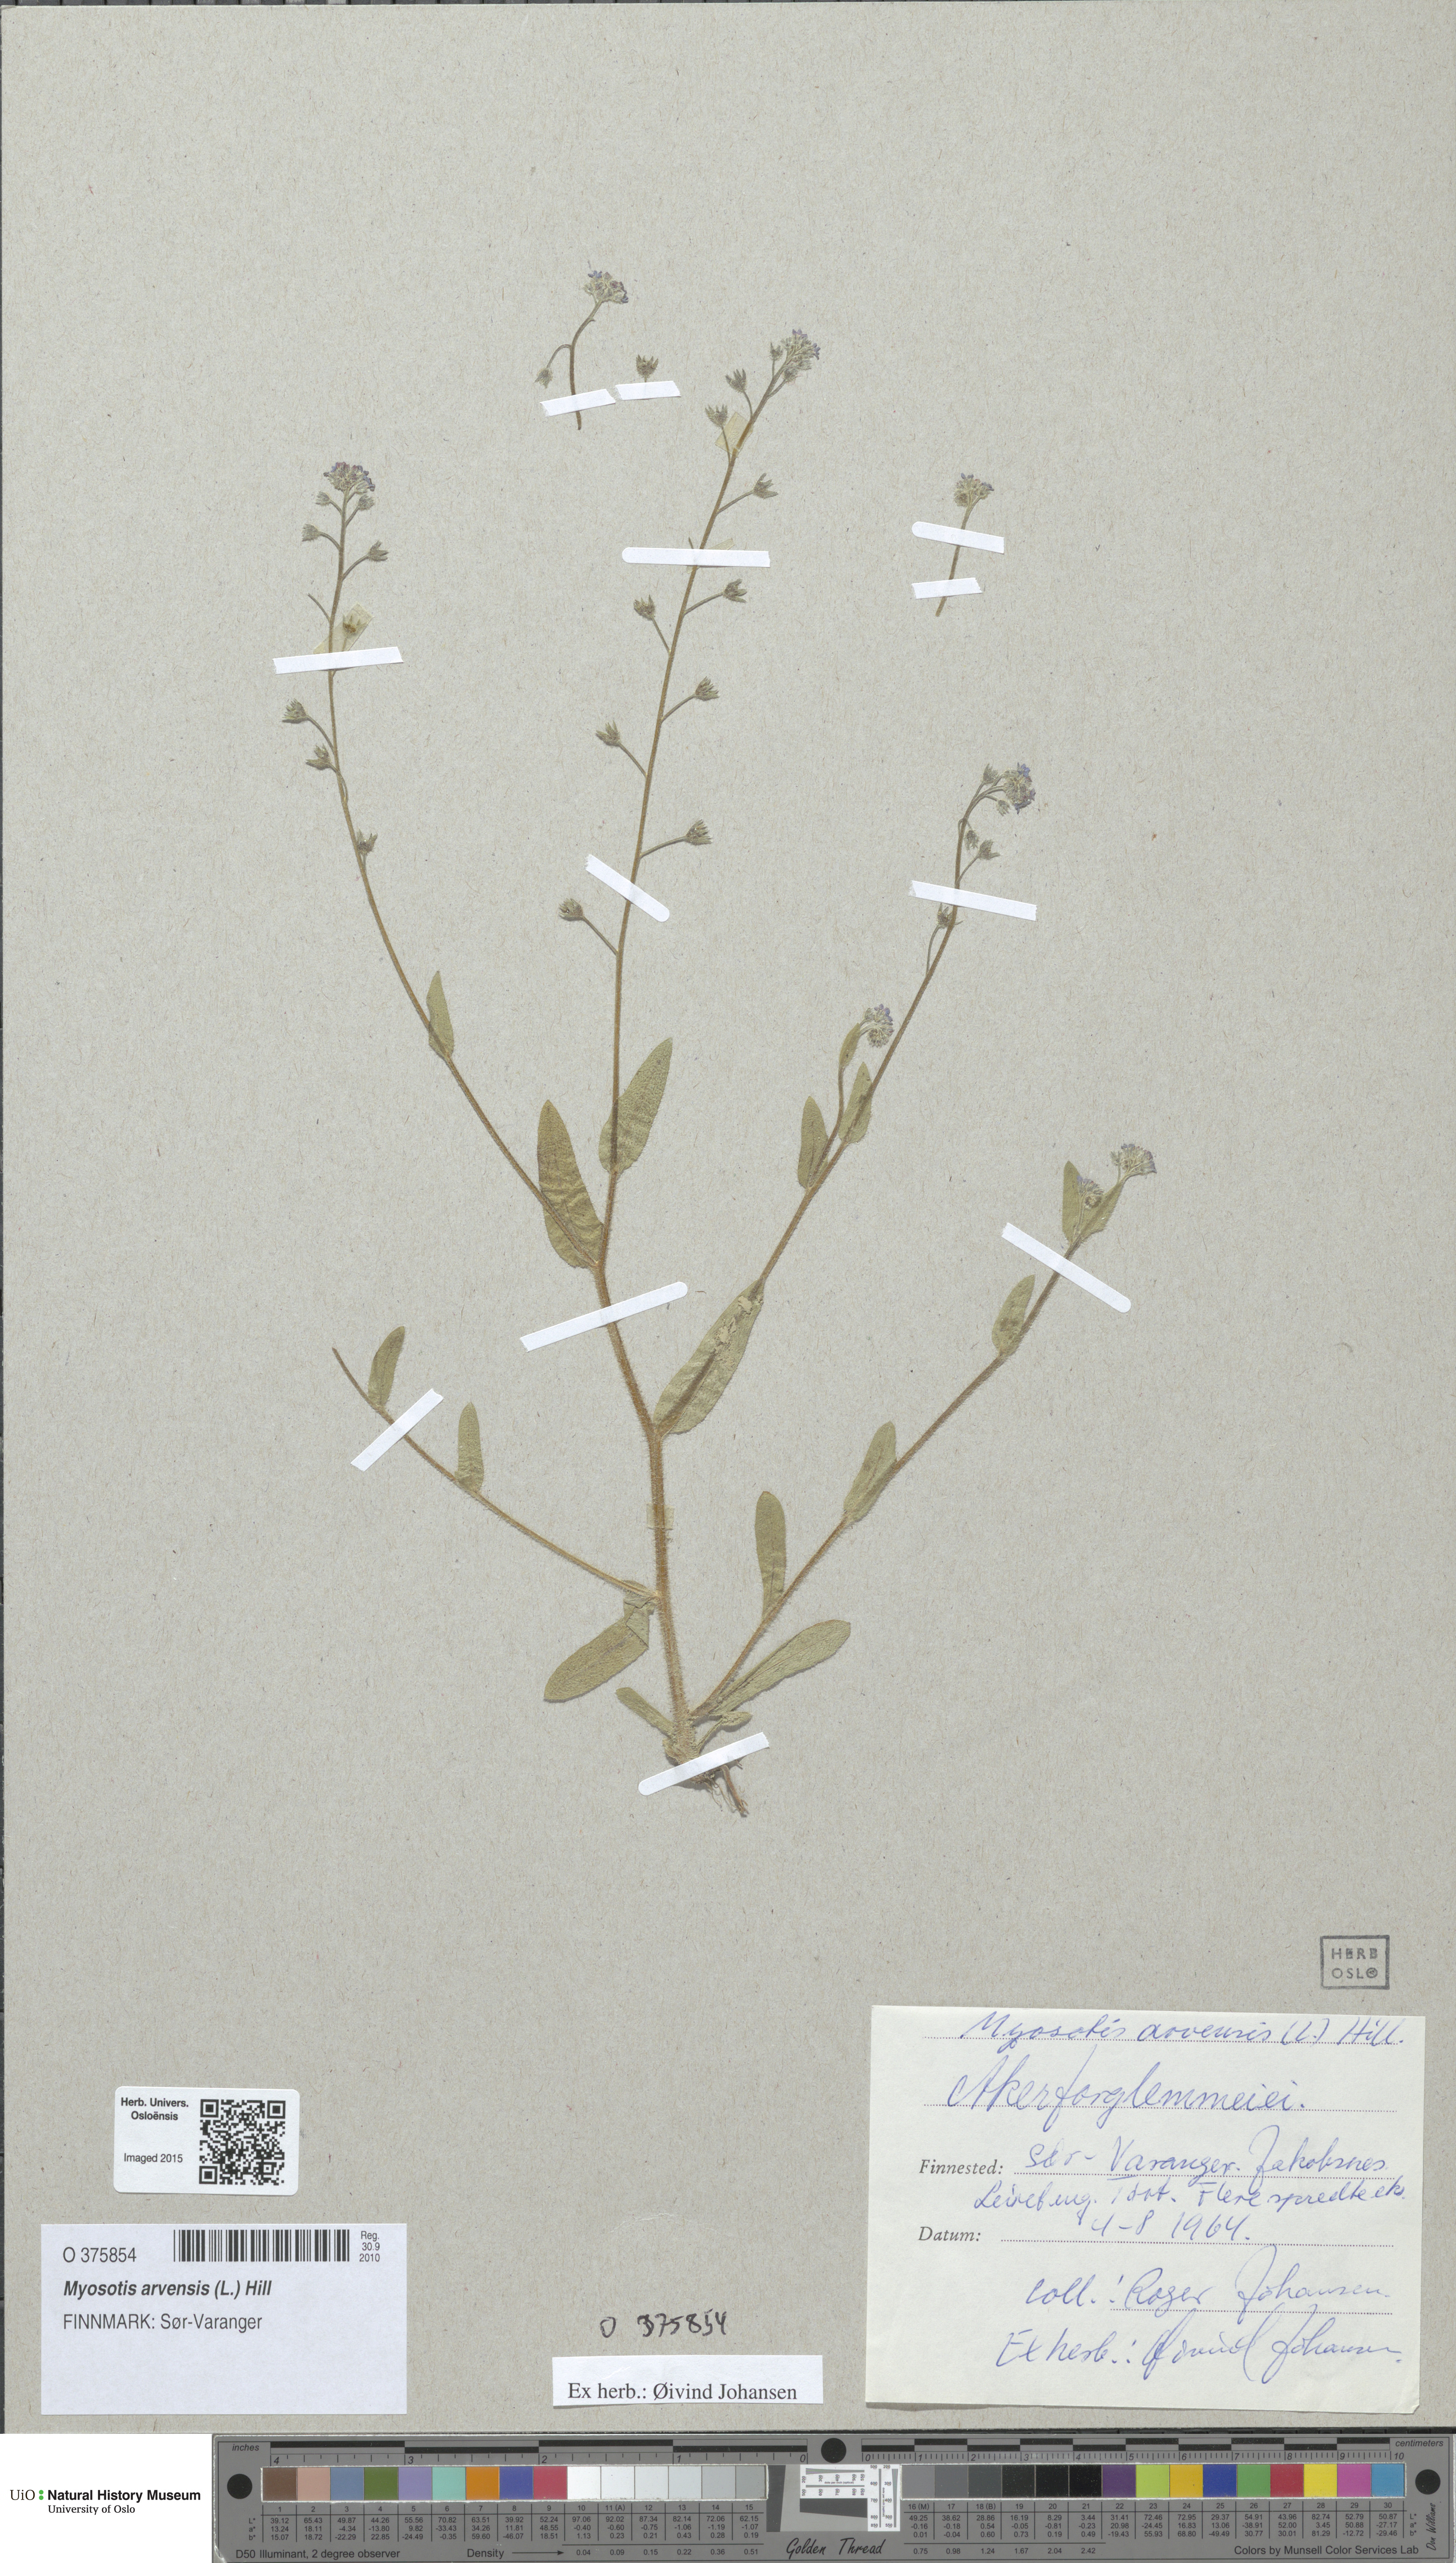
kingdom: Plantae
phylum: Tracheophyta
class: Magnoliopsida
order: Boraginales
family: Boraginaceae
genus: Myosotis
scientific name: Myosotis arvensis
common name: Field forget-me-not
